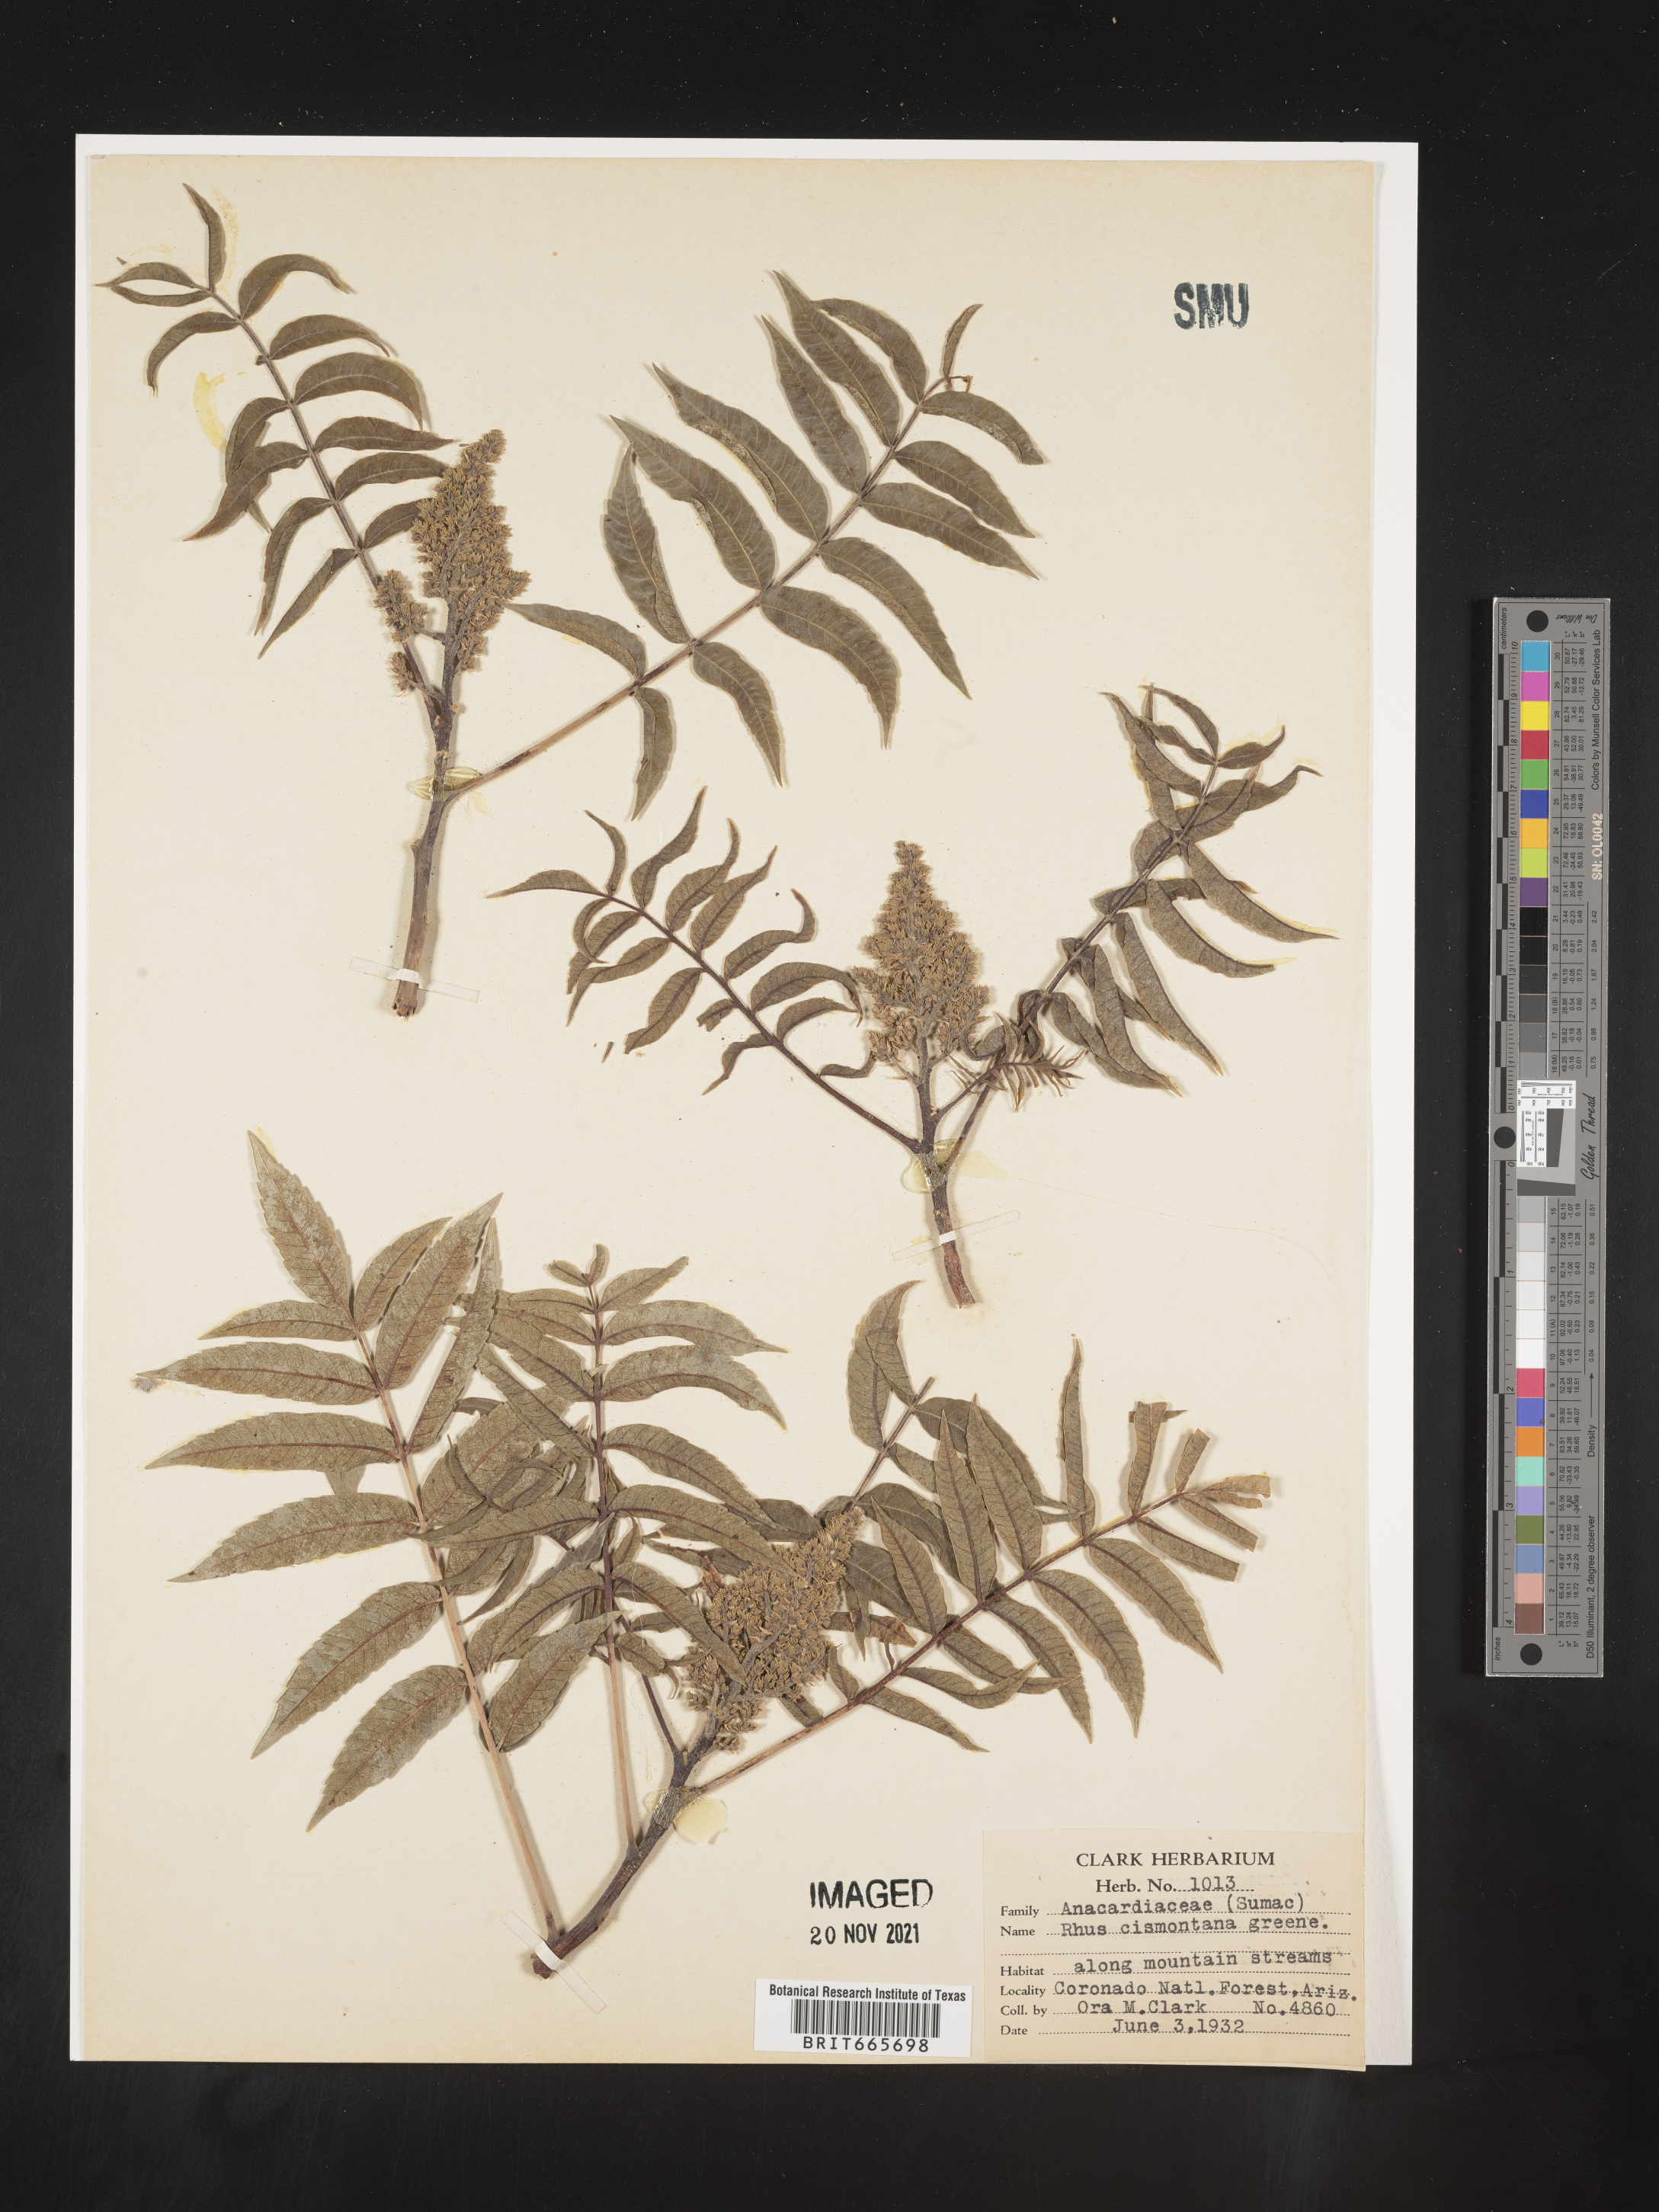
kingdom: Plantae
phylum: Tracheophyta
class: Magnoliopsida
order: Sapindales
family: Anacardiaceae
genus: Rhus
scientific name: Rhus
